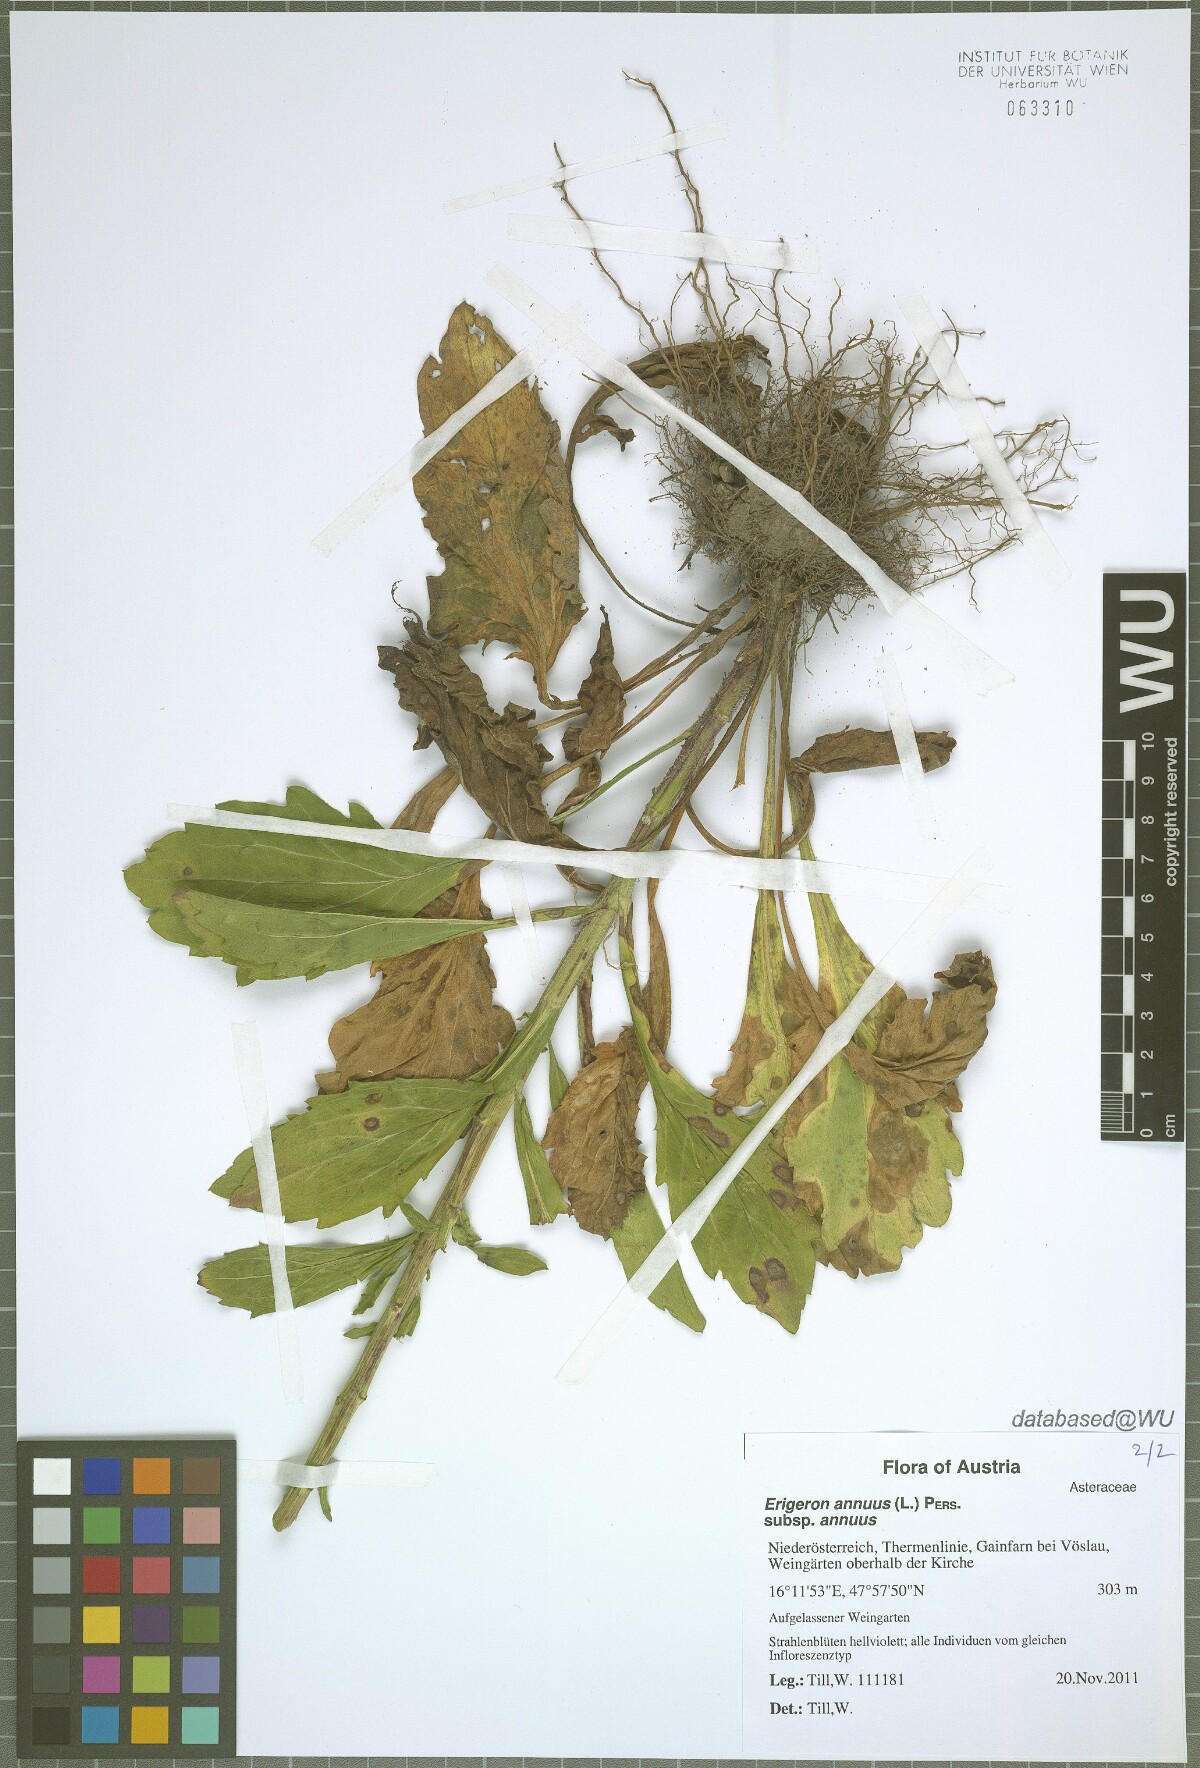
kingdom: Plantae
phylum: Tracheophyta
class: Magnoliopsida
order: Asterales
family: Asteraceae
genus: Erigeron
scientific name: Erigeron annuus
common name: Tall fleabane
